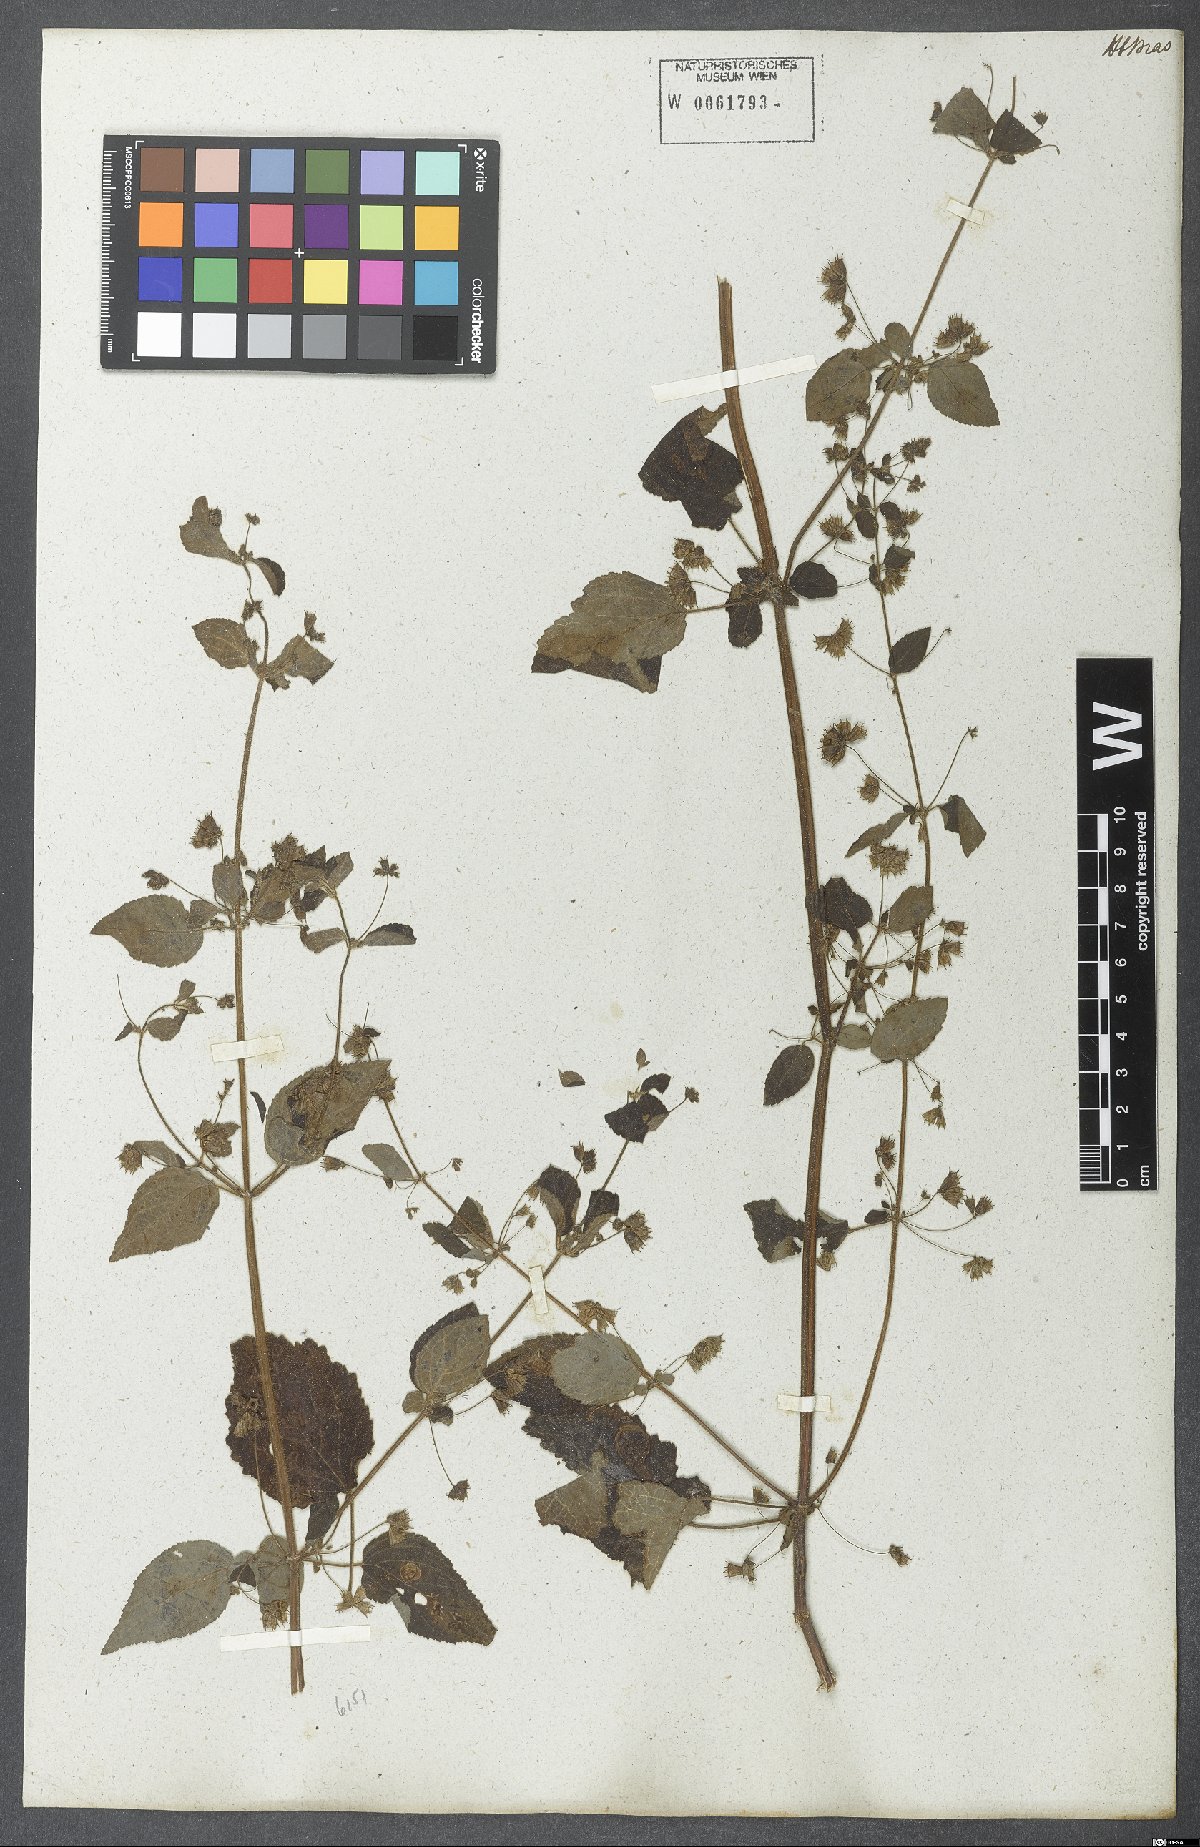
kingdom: Plantae
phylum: Tracheophyta
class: Magnoliopsida
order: Lamiales
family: Lamiaceae
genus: Mesosphaerum
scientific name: Mesosphaerum sidifolium
